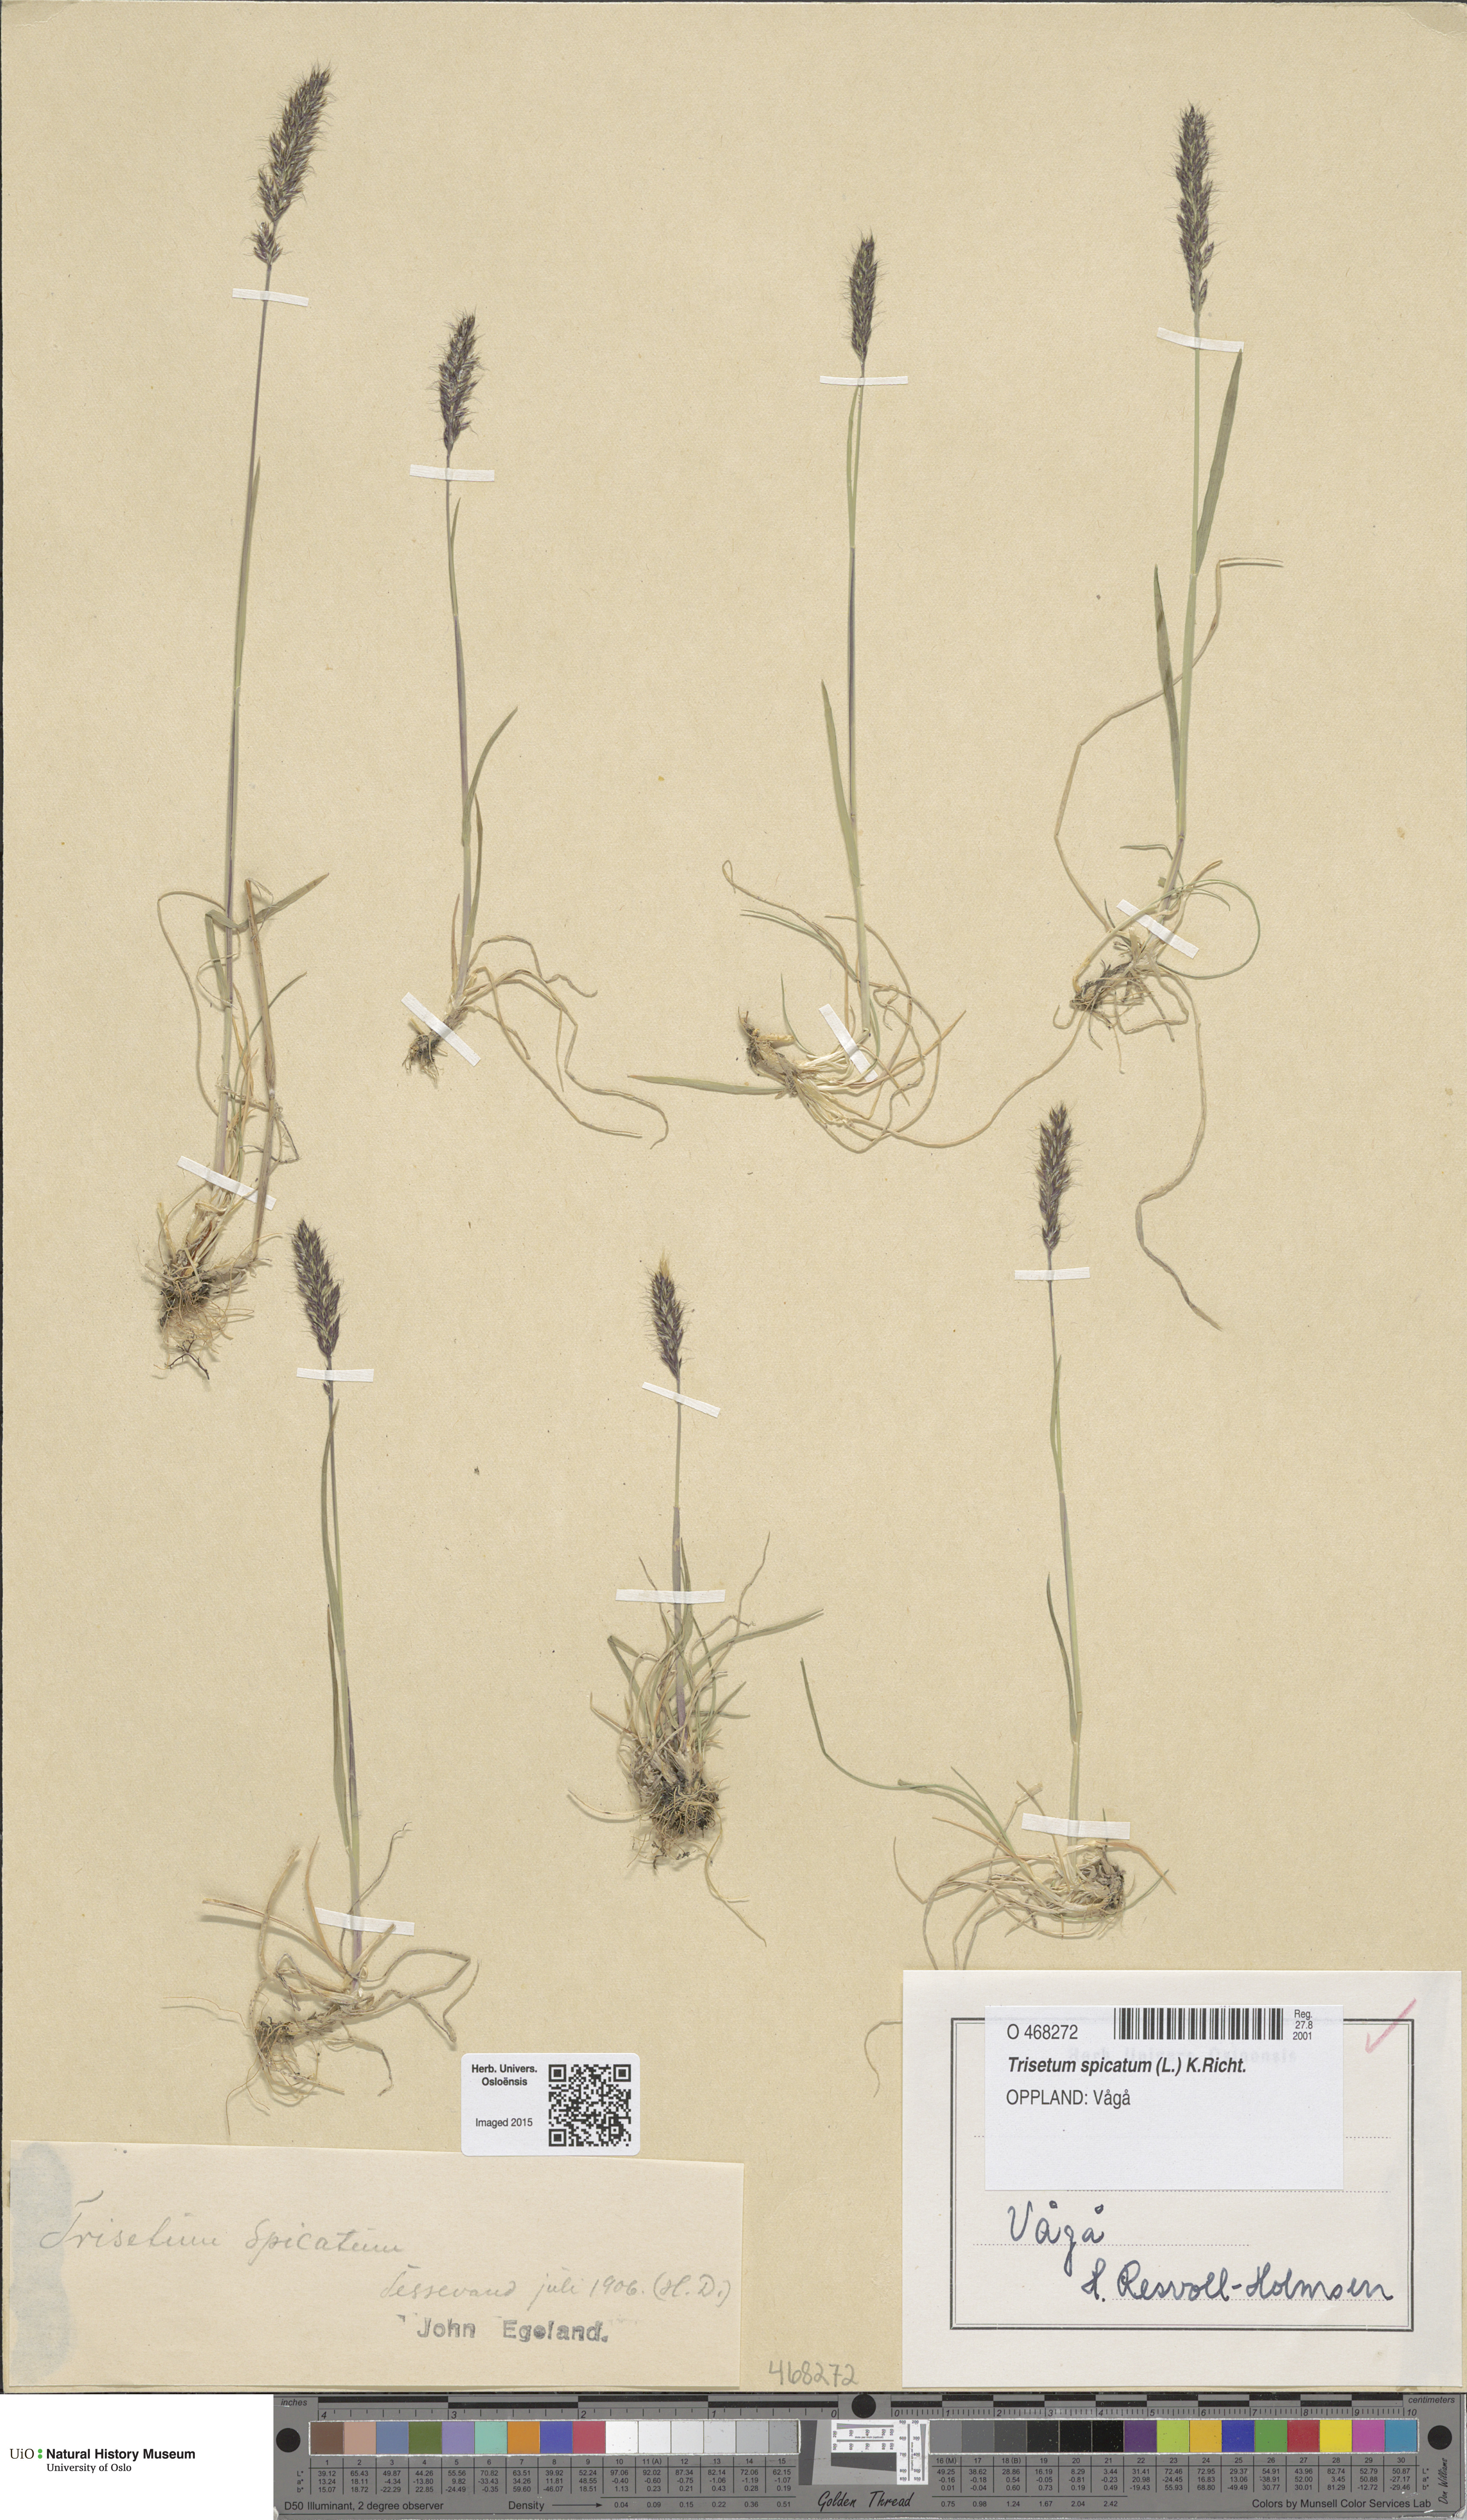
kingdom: Plantae
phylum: Tracheophyta
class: Liliopsida
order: Poales
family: Poaceae
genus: Koeleria
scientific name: Koeleria spicata
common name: Mountain trisetum
